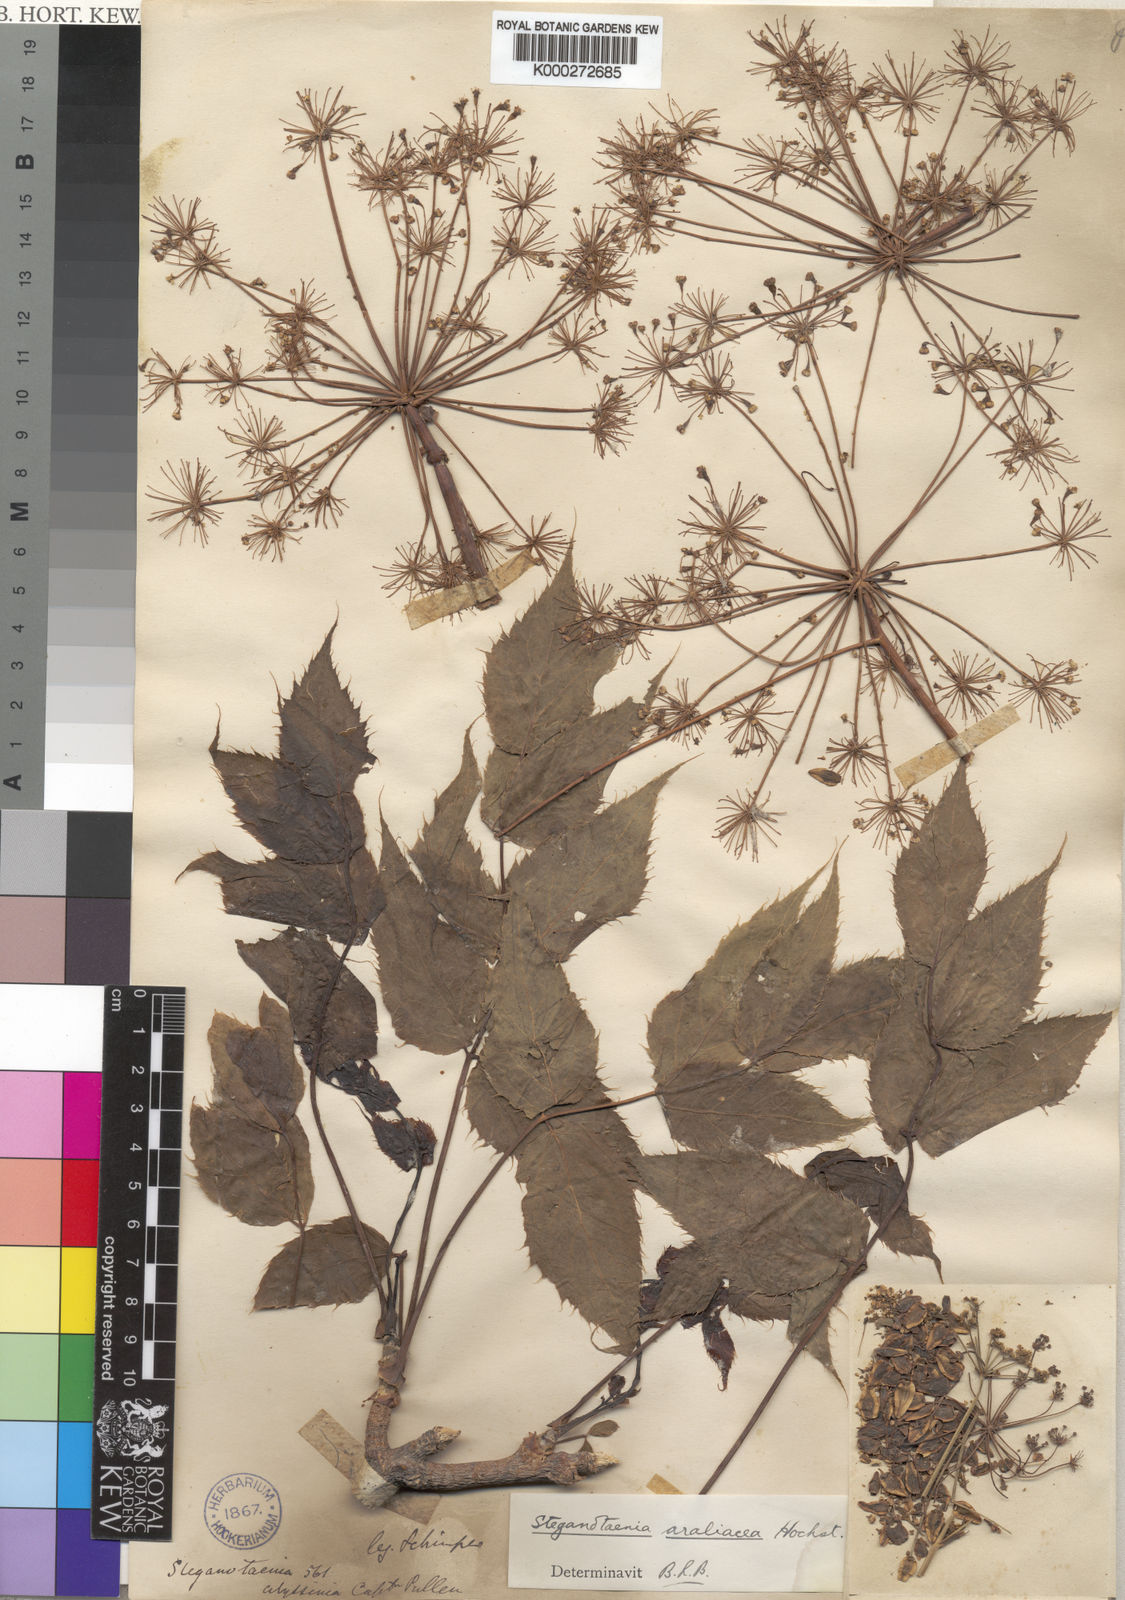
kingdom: Plantae
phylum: Tracheophyta
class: Magnoliopsida
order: Apiales
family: Apiaceae
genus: Steganotaenia
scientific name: Steganotaenia araliacea
